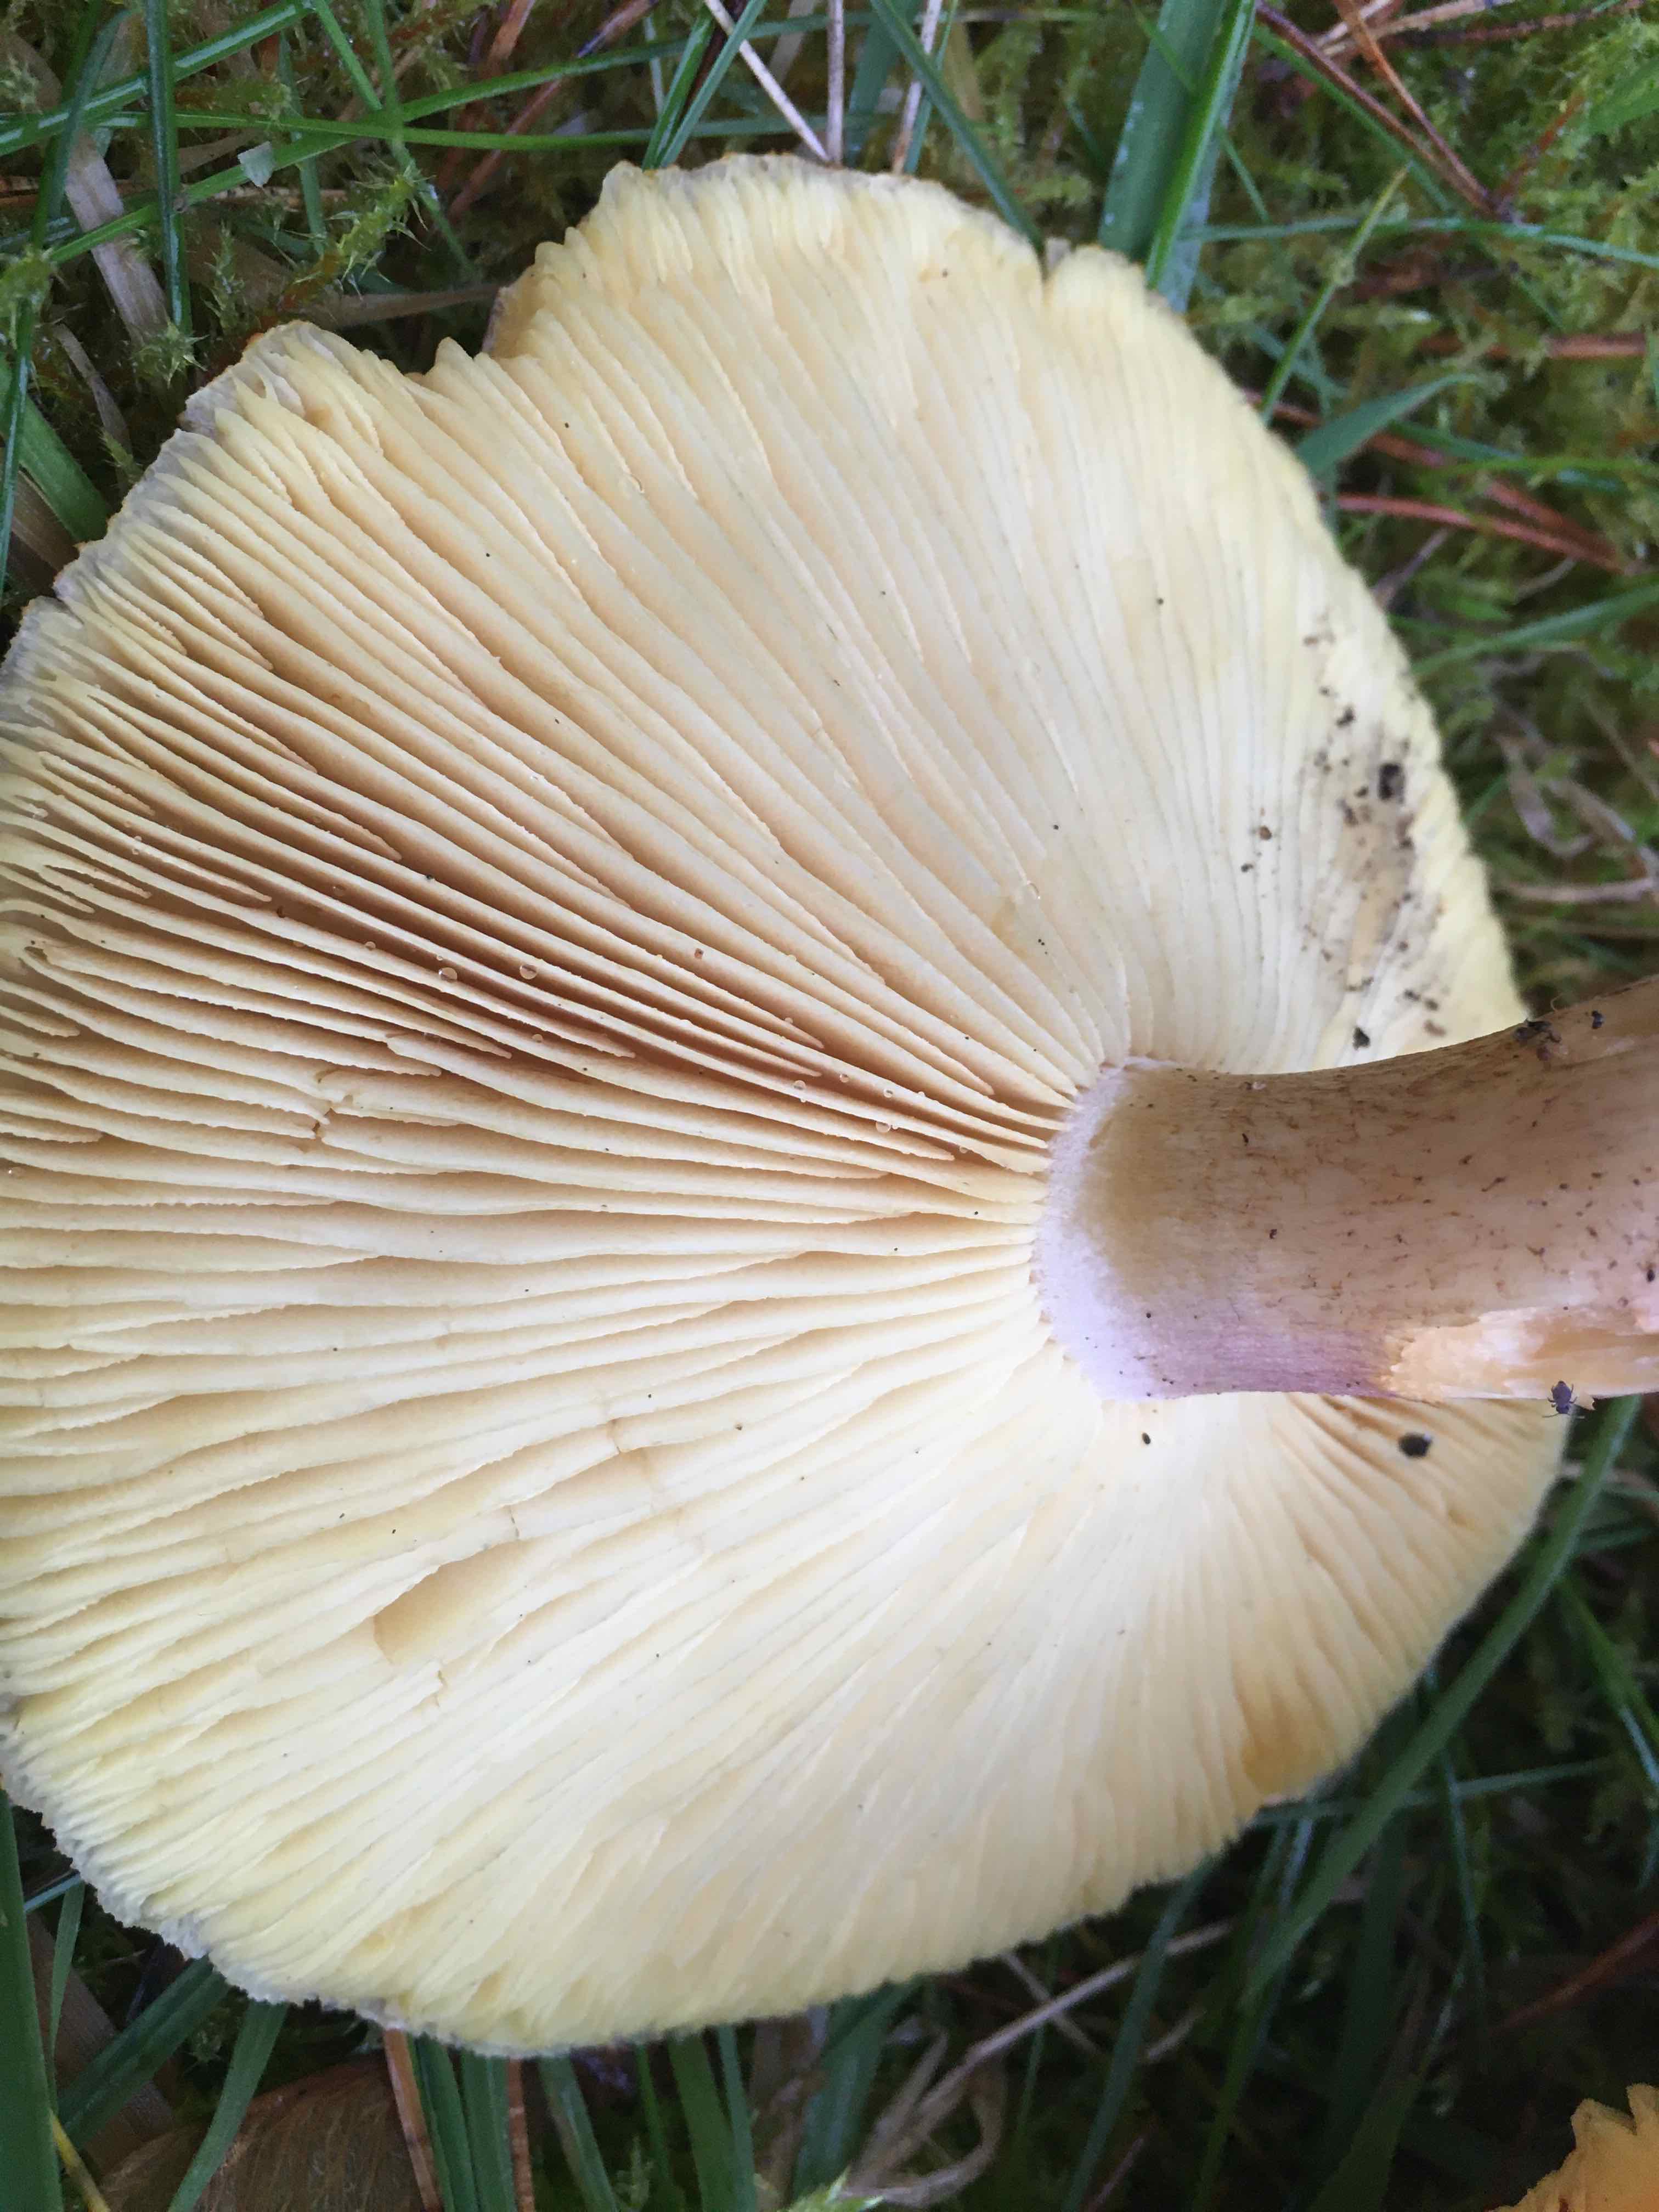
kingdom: Fungi
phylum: Basidiomycota
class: Agaricomycetes
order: Agaricales
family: Tricholomataceae
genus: Tricholomopsis
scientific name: Tricholomopsis rutilans
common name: purpur-væbnerhat
